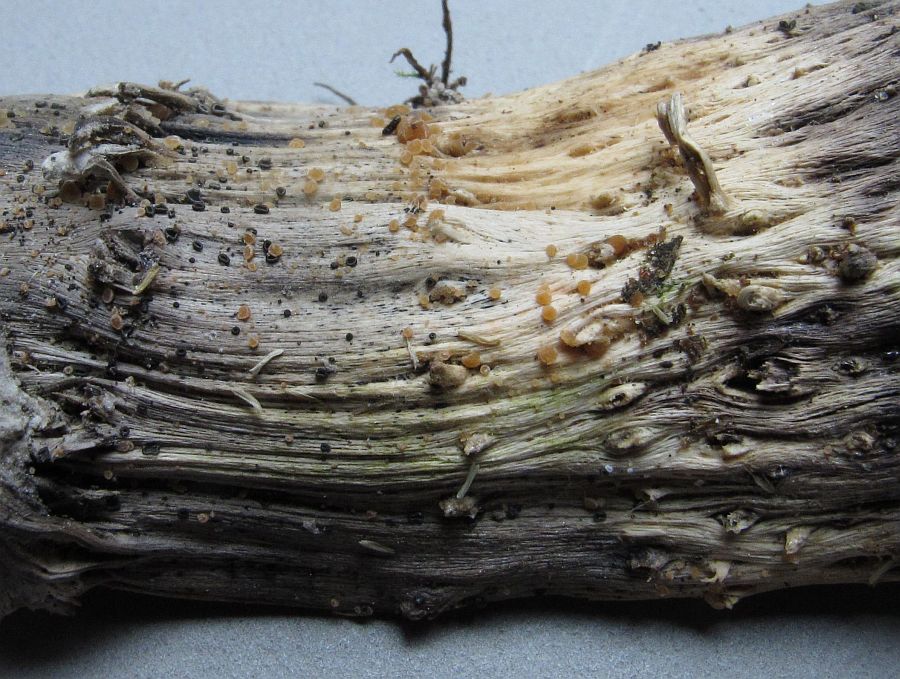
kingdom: Fungi
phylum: Ascomycota
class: Leotiomycetes
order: Helotiales
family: Calloriaceae
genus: Calloria
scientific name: Calloria
